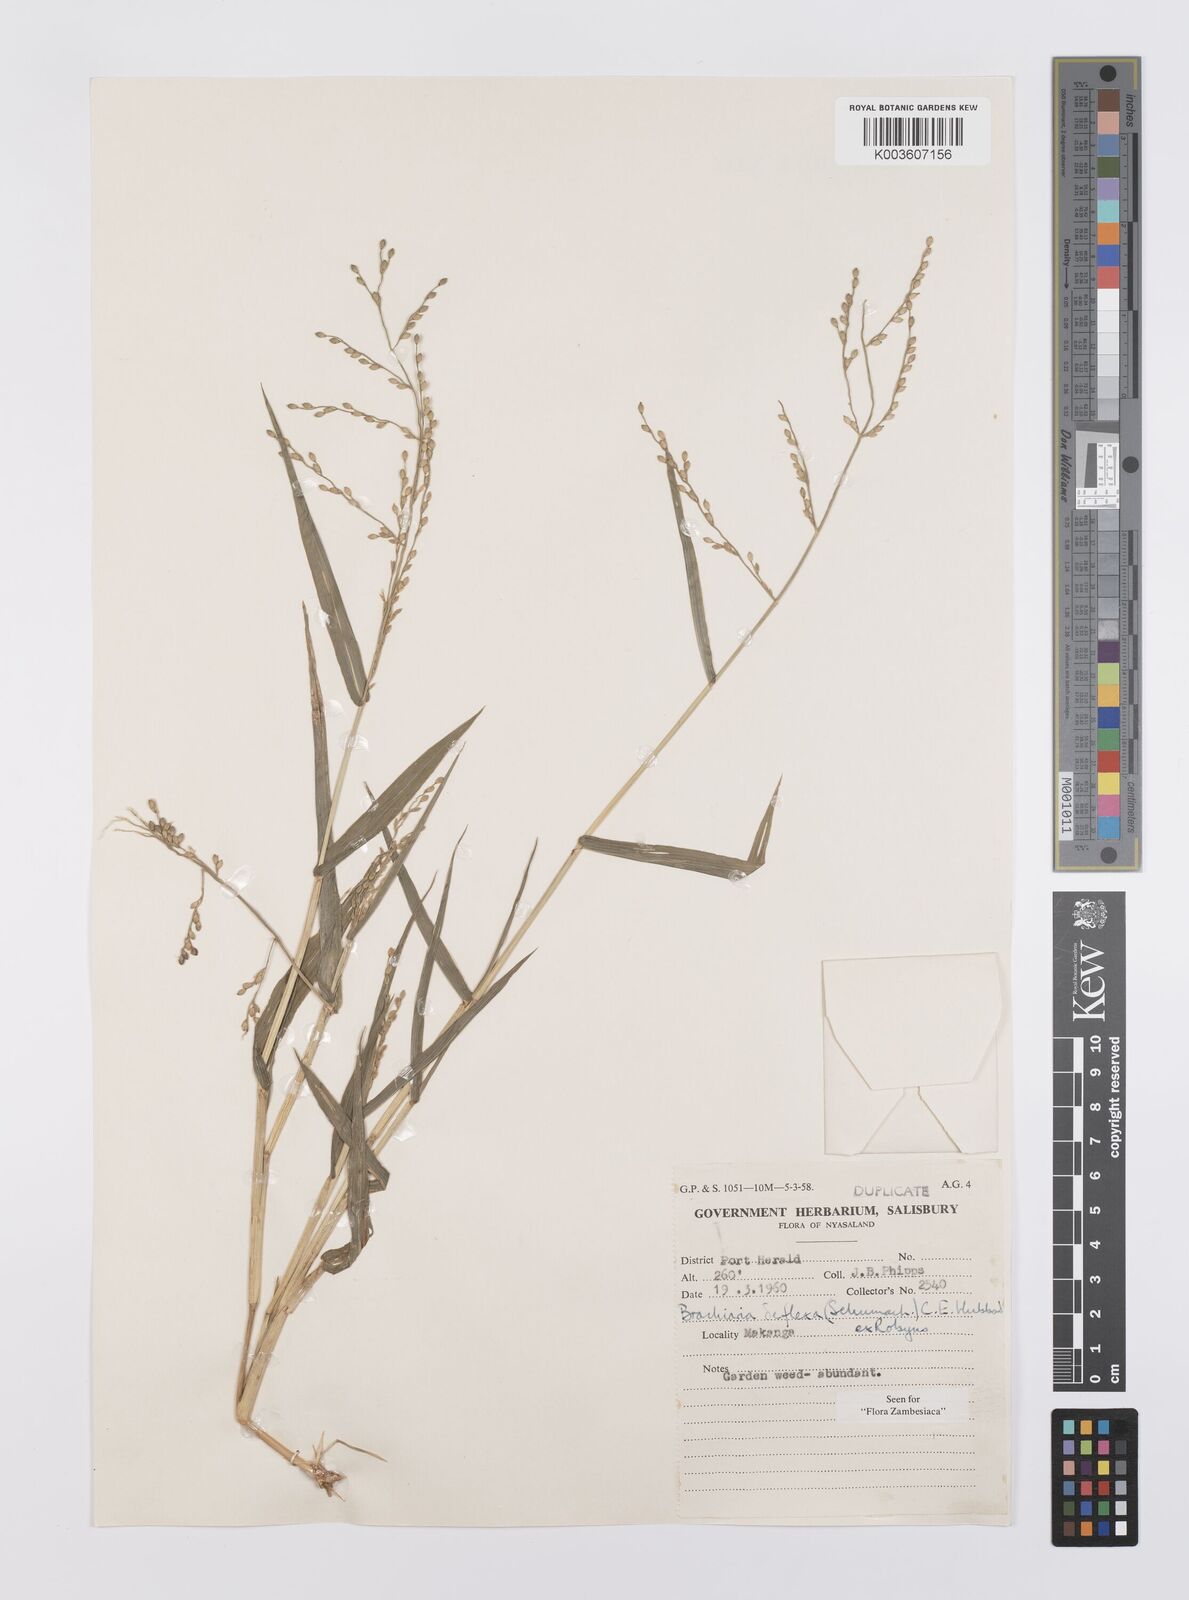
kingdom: Plantae
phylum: Tracheophyta
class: Liliopsida
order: Poales
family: Poaceae
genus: Urochloa
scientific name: Urochloa deflexa
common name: Guinea millet
